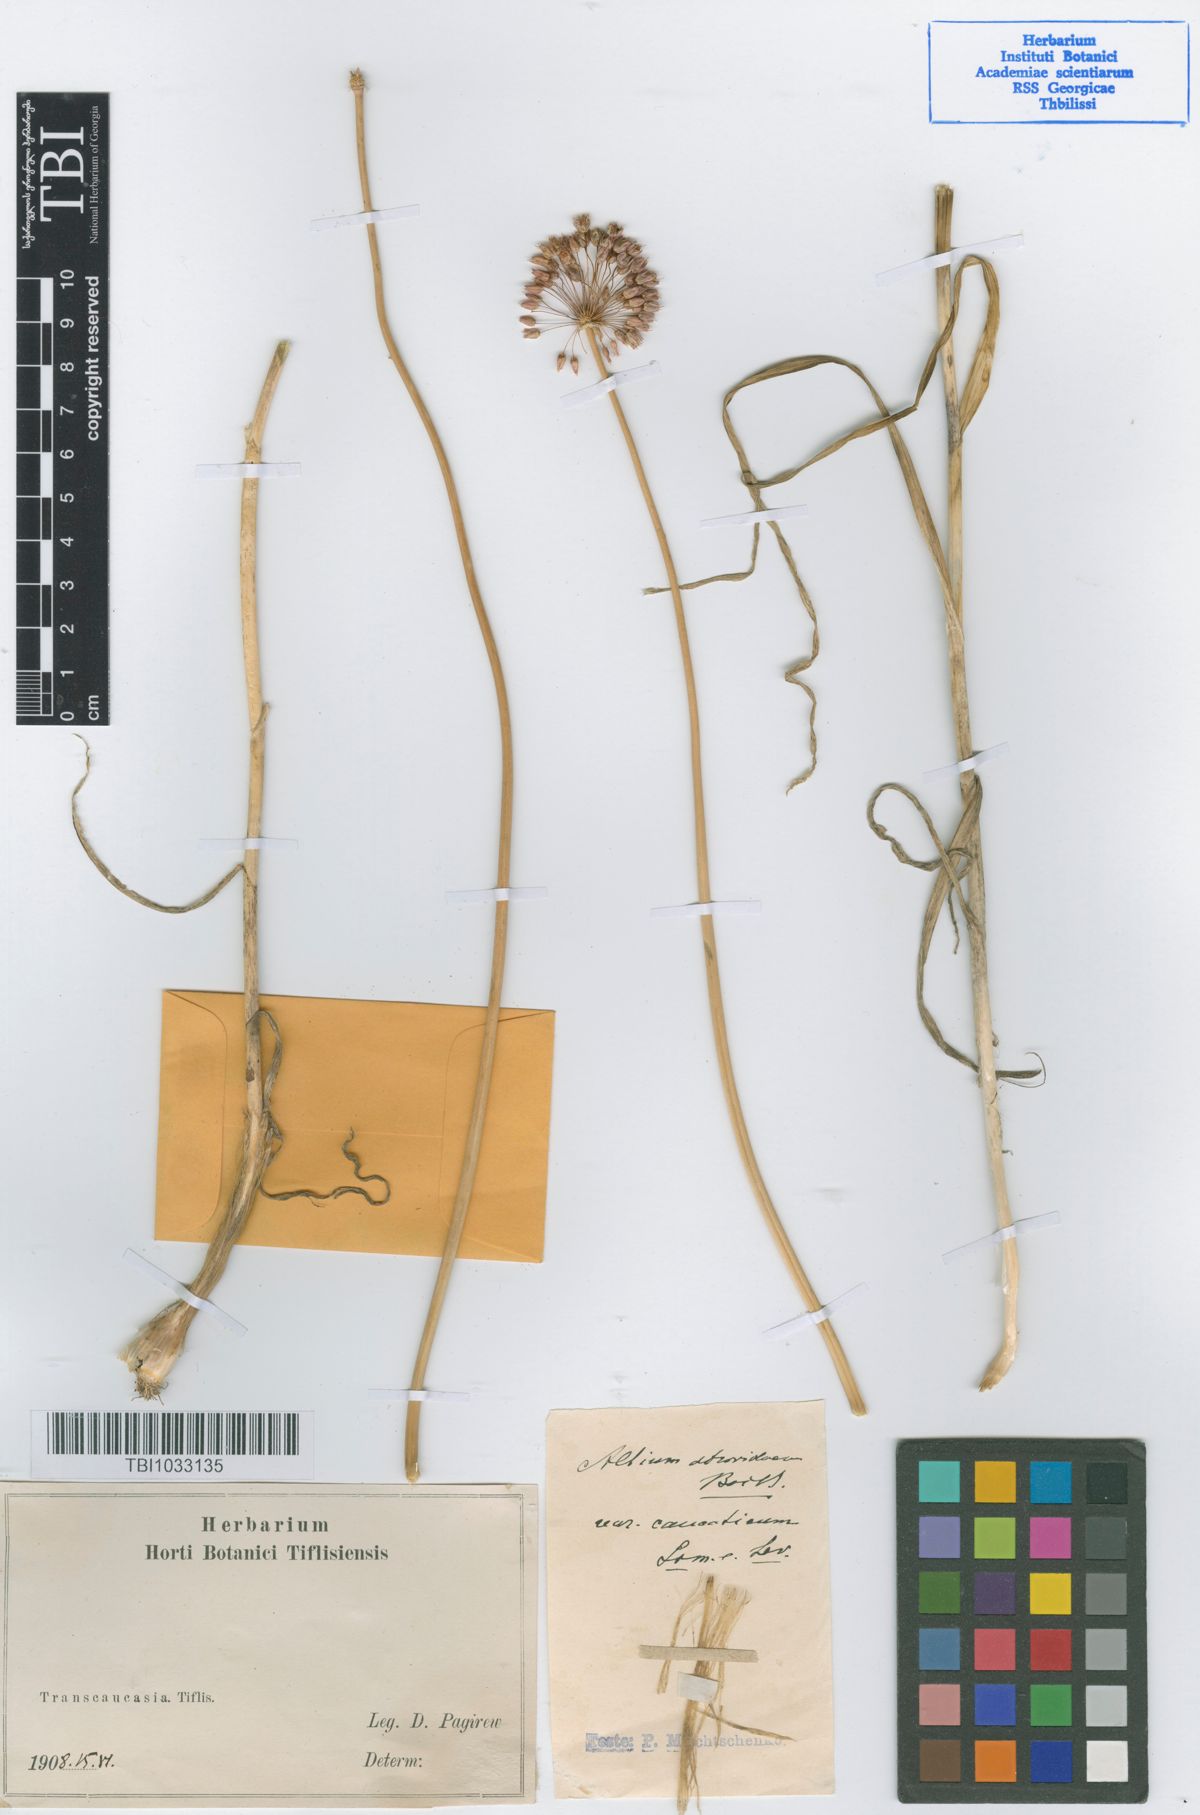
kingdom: Plantae
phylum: Tracheophyta
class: Liliopsida
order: Asparagales
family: Amaryllidaceae
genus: Allium
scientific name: Allium atroviolaceum
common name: Broadleaf wild leek
